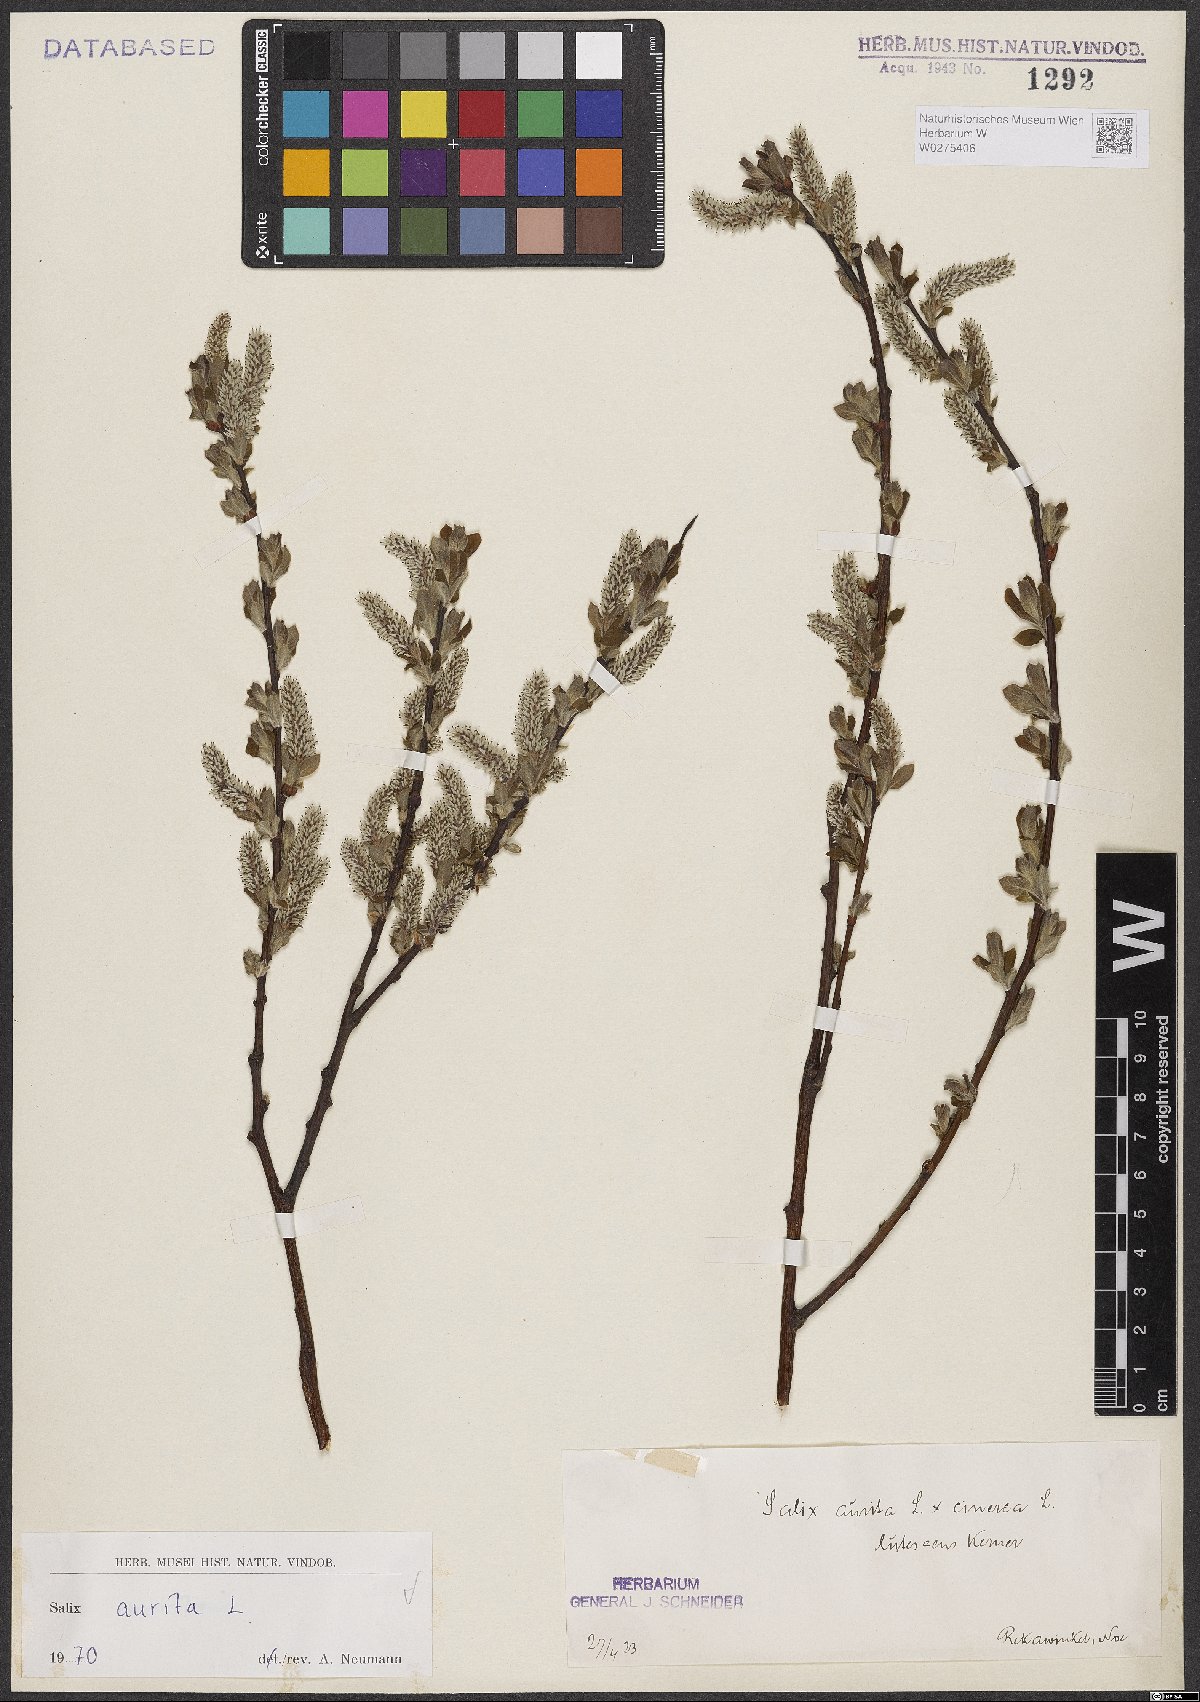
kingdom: Plantae
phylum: Tracheophyta
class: Magnoliopsida
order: Malpighiales
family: Salicaceae
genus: Salix
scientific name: Salix aurita
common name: Eared willow
